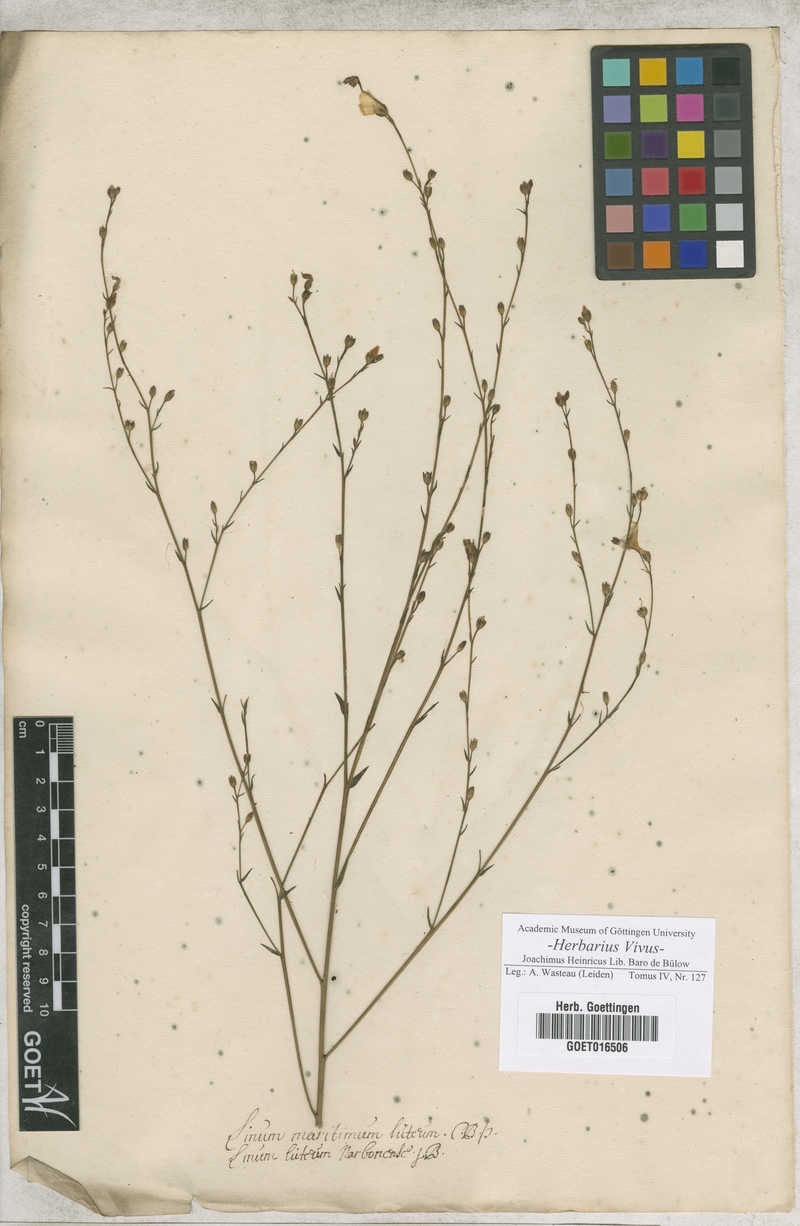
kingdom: Plantae
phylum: Tracheophyta
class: Magnoliopsida
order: Malpighiales
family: Linaceae
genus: Linum
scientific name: Linum maritimum
